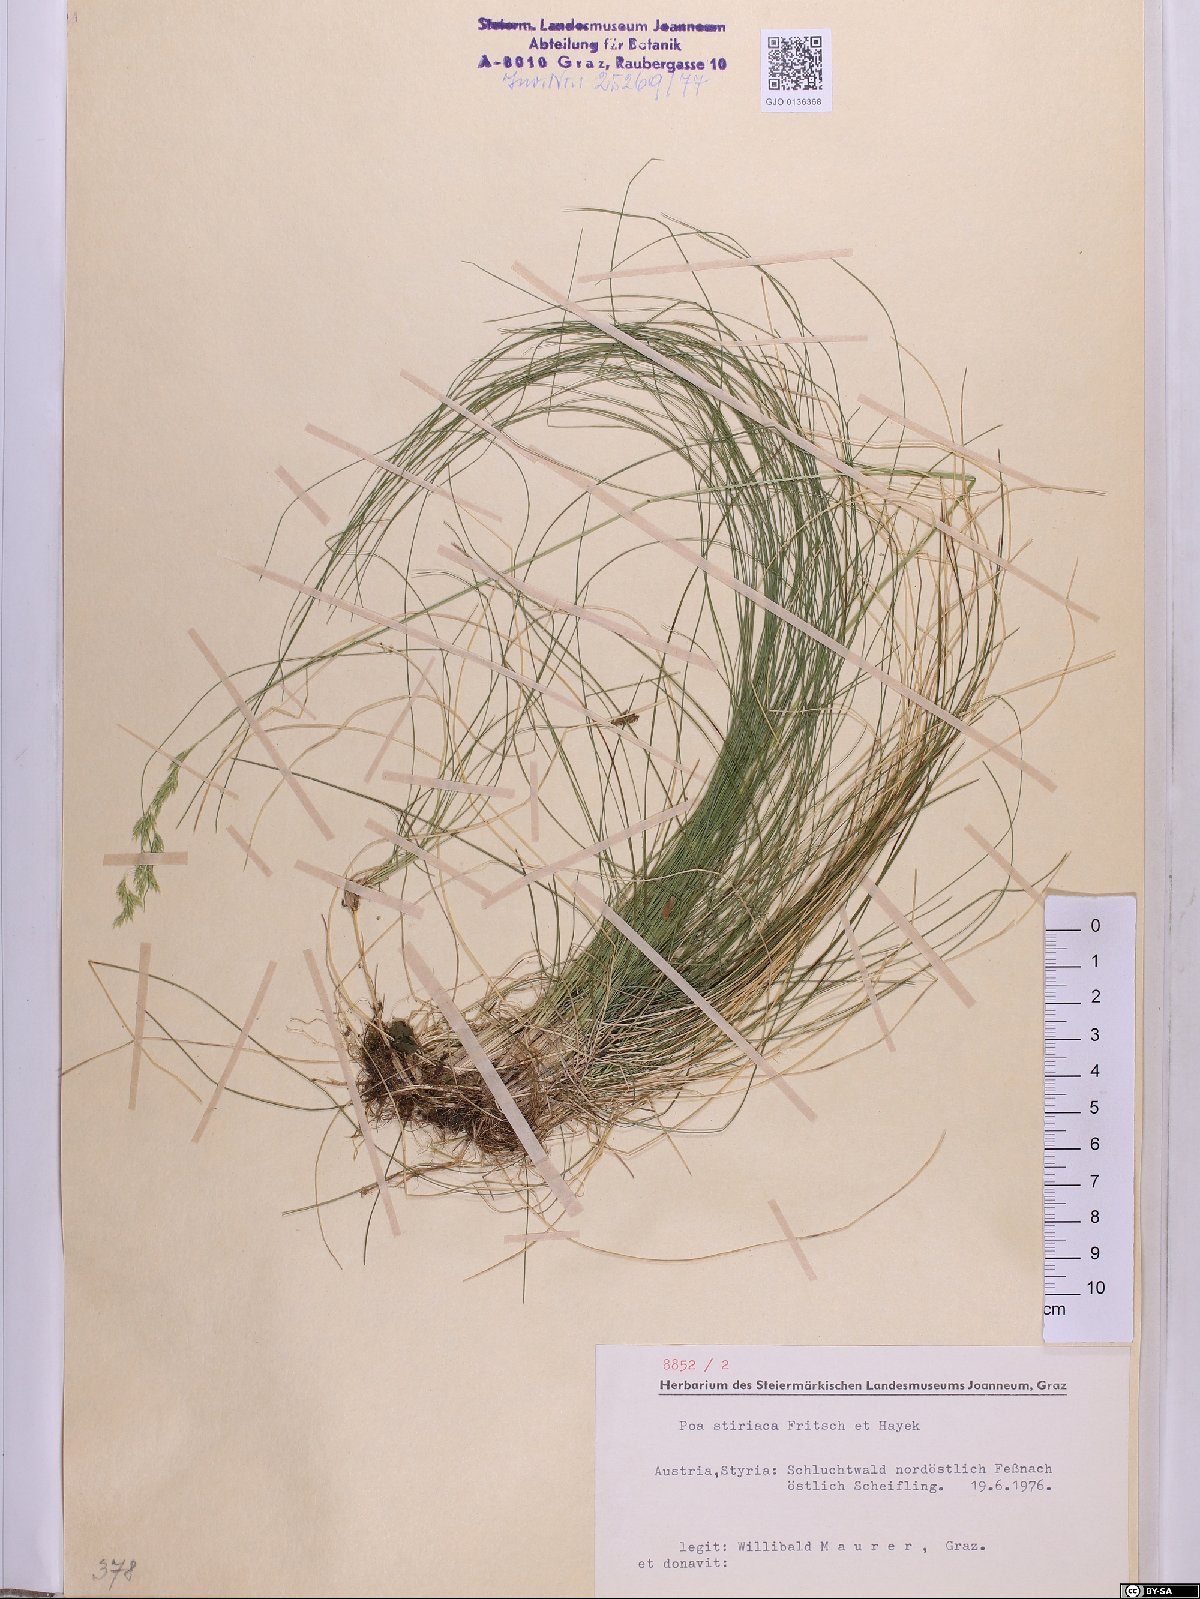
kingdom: Plantae
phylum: Tracheophyta
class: Liliopsida
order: Poales
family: Poaceae
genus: Poa
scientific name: Poa stiriaca
